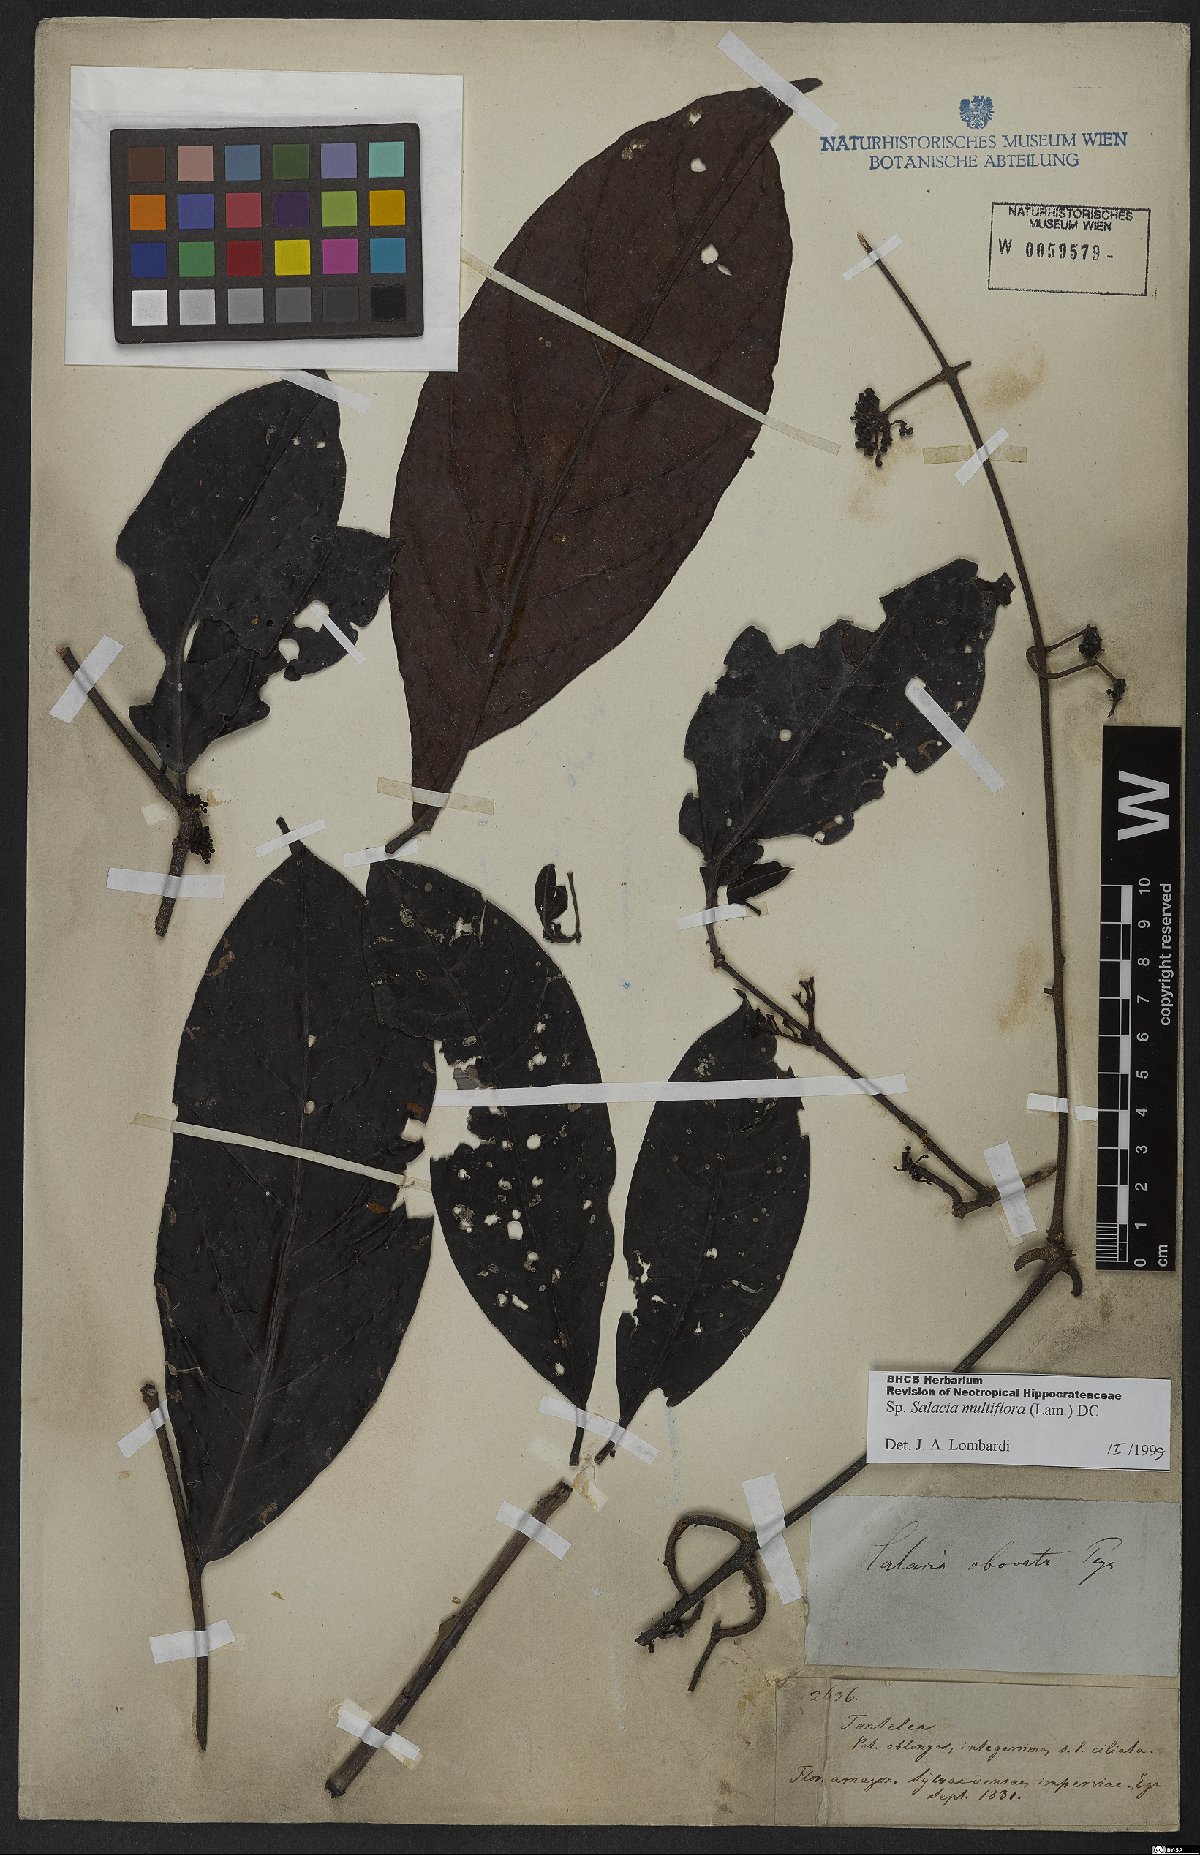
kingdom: Plantae
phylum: Tracheophyta
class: Magnoliopsida
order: Celastrales
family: Celastraceae
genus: Salacia
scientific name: Salacia multiflora
